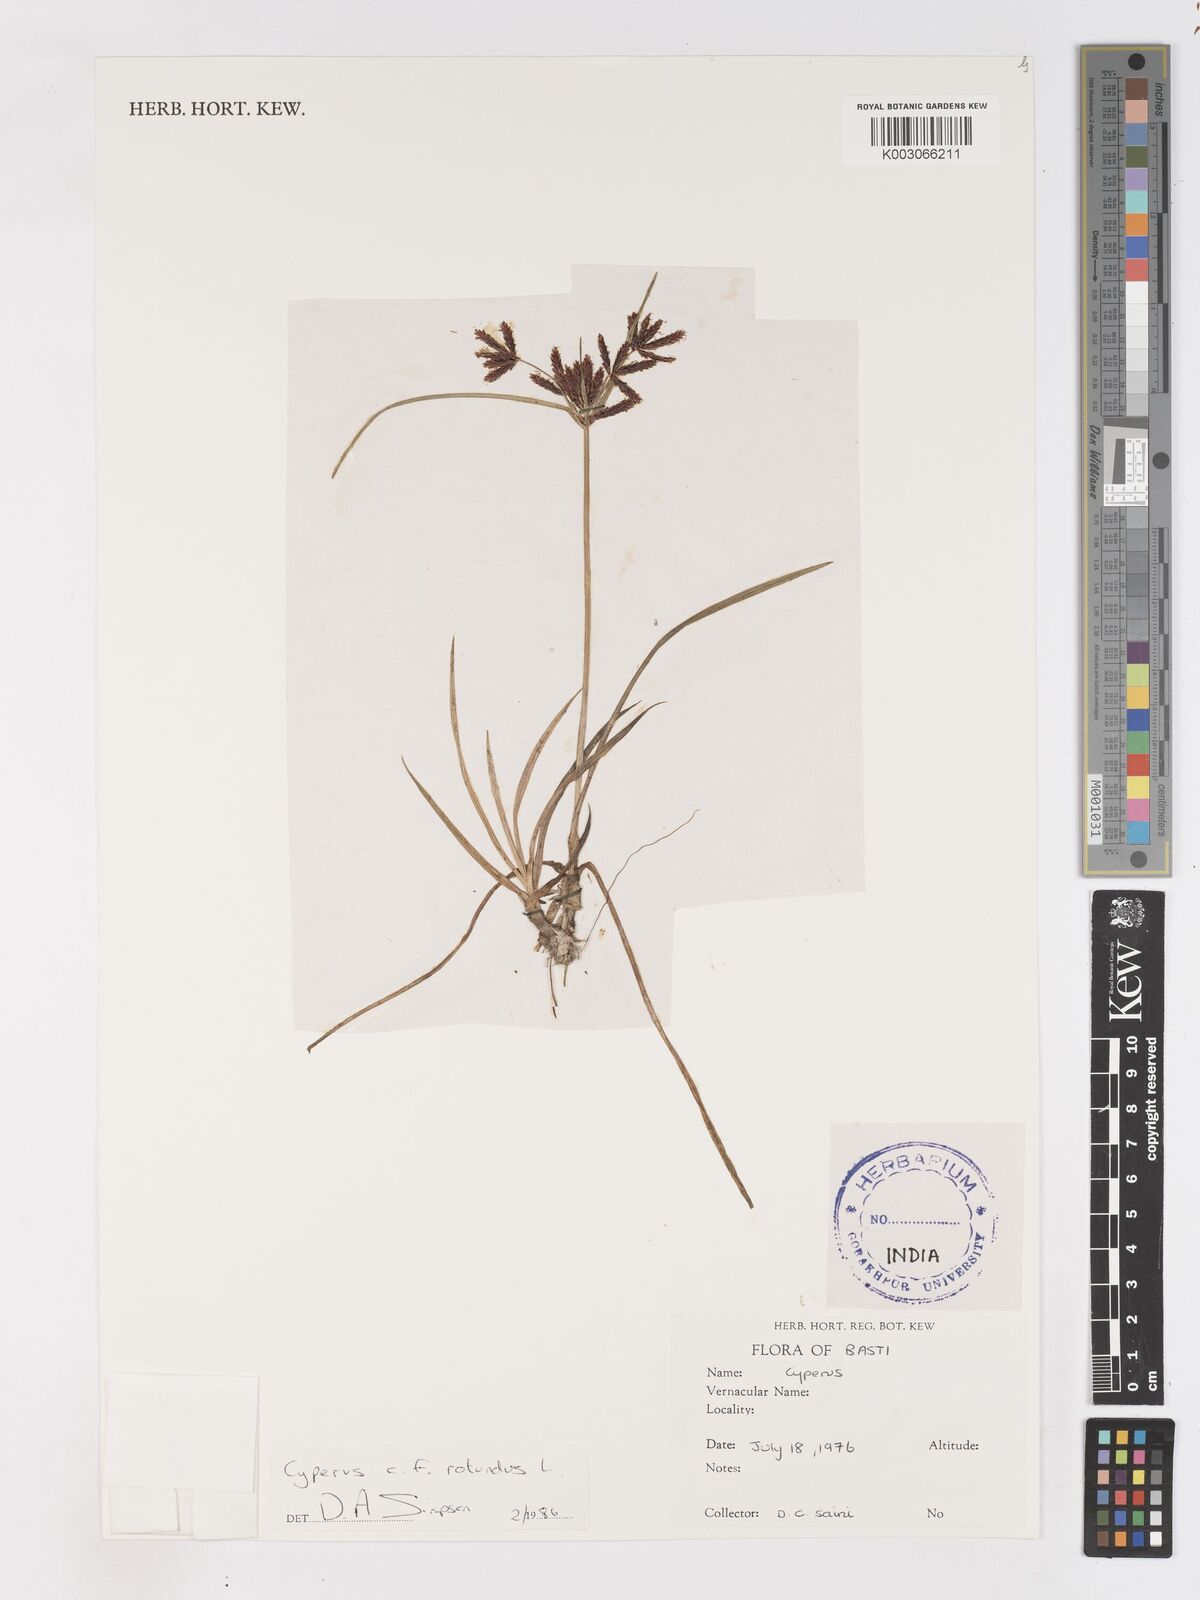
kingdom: Plantae
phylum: Tracheophyta
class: Liliopsida
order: Poales
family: Cyperaceae
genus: Cyperus
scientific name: Cyperus rotundus
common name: Nutgrass
